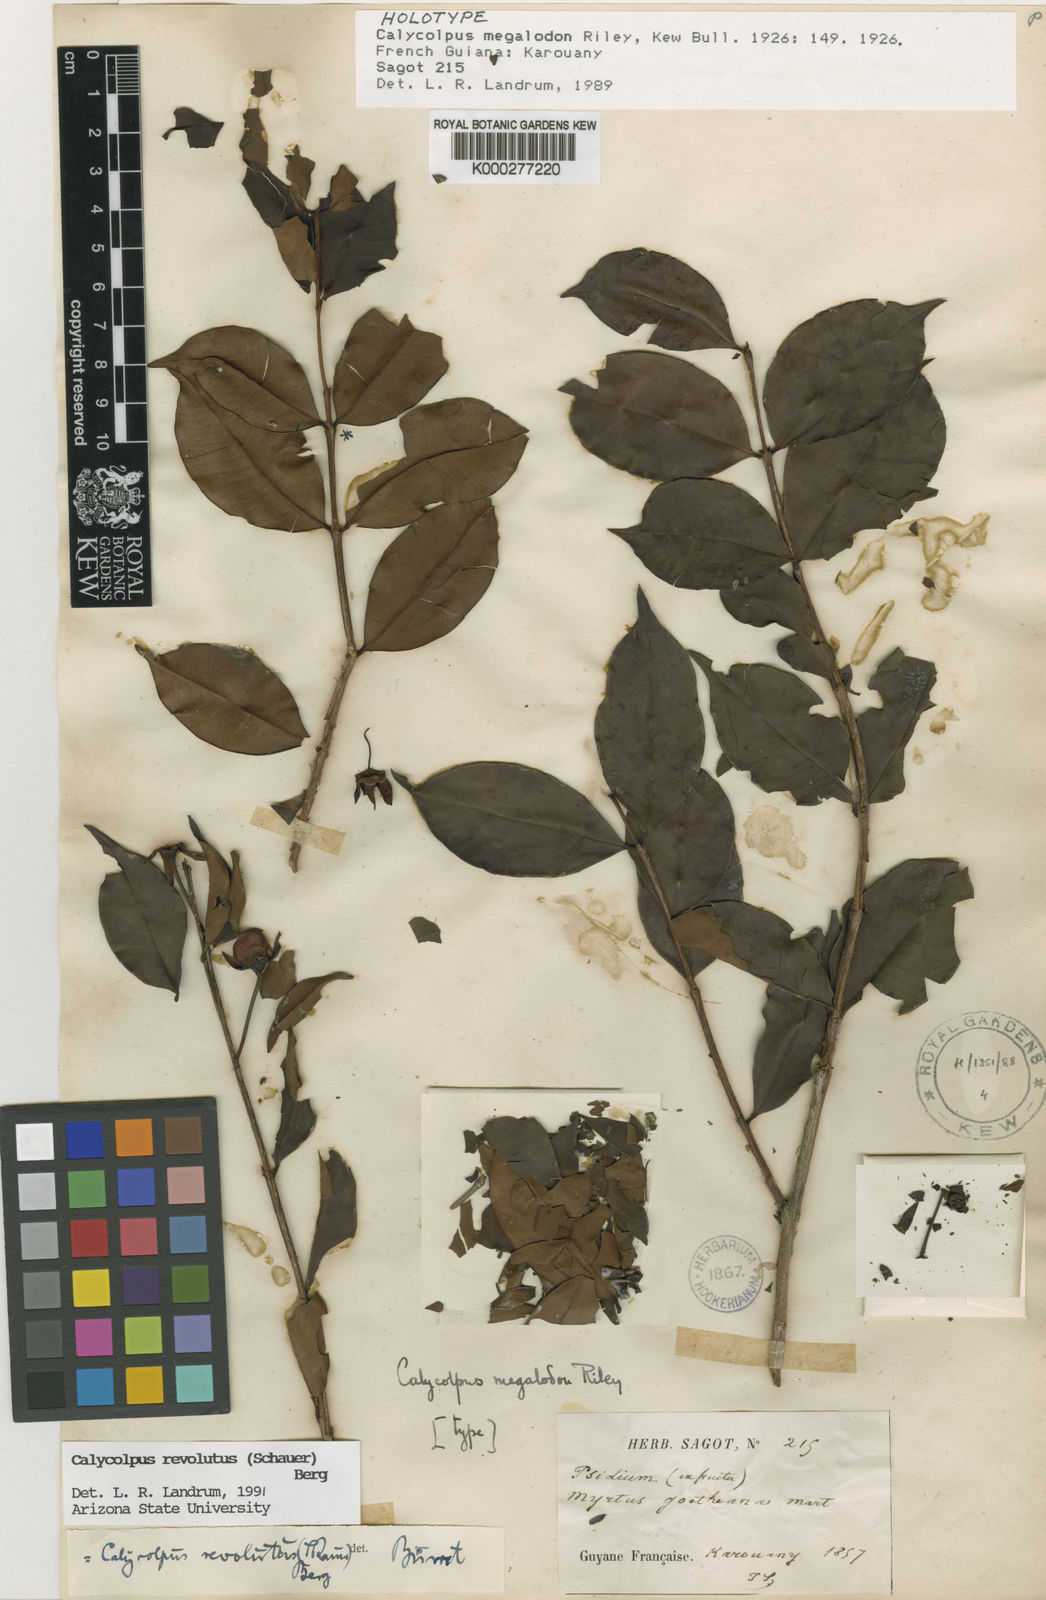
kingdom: Plantae
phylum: Tracheophyta
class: Magnoliopsida
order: Myrtales
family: Myrtaceae
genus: Calycolpus
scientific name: Calycolpus revolutus
